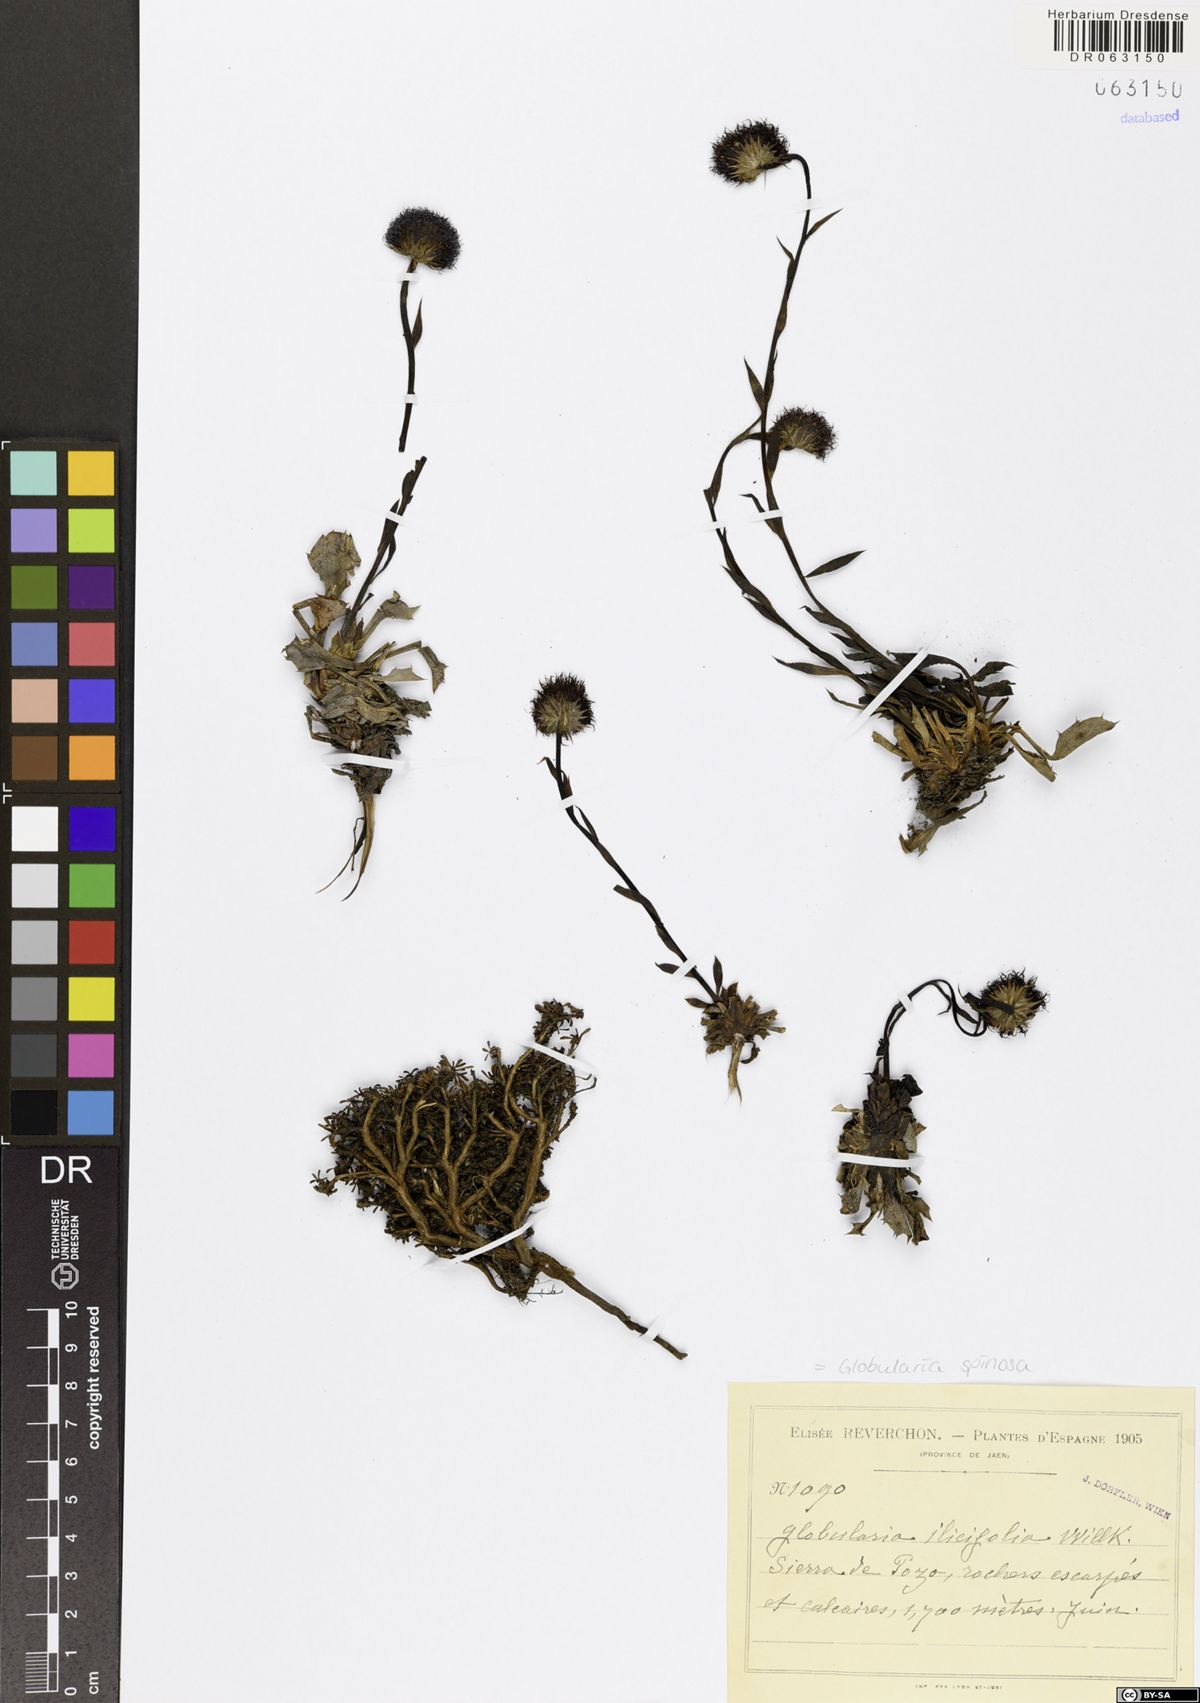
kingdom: Plantae
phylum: Tracheophyta
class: Magnoliopsida
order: Lamiales
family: Plantaginaceae
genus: Globularia
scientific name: Globularia spinosa
